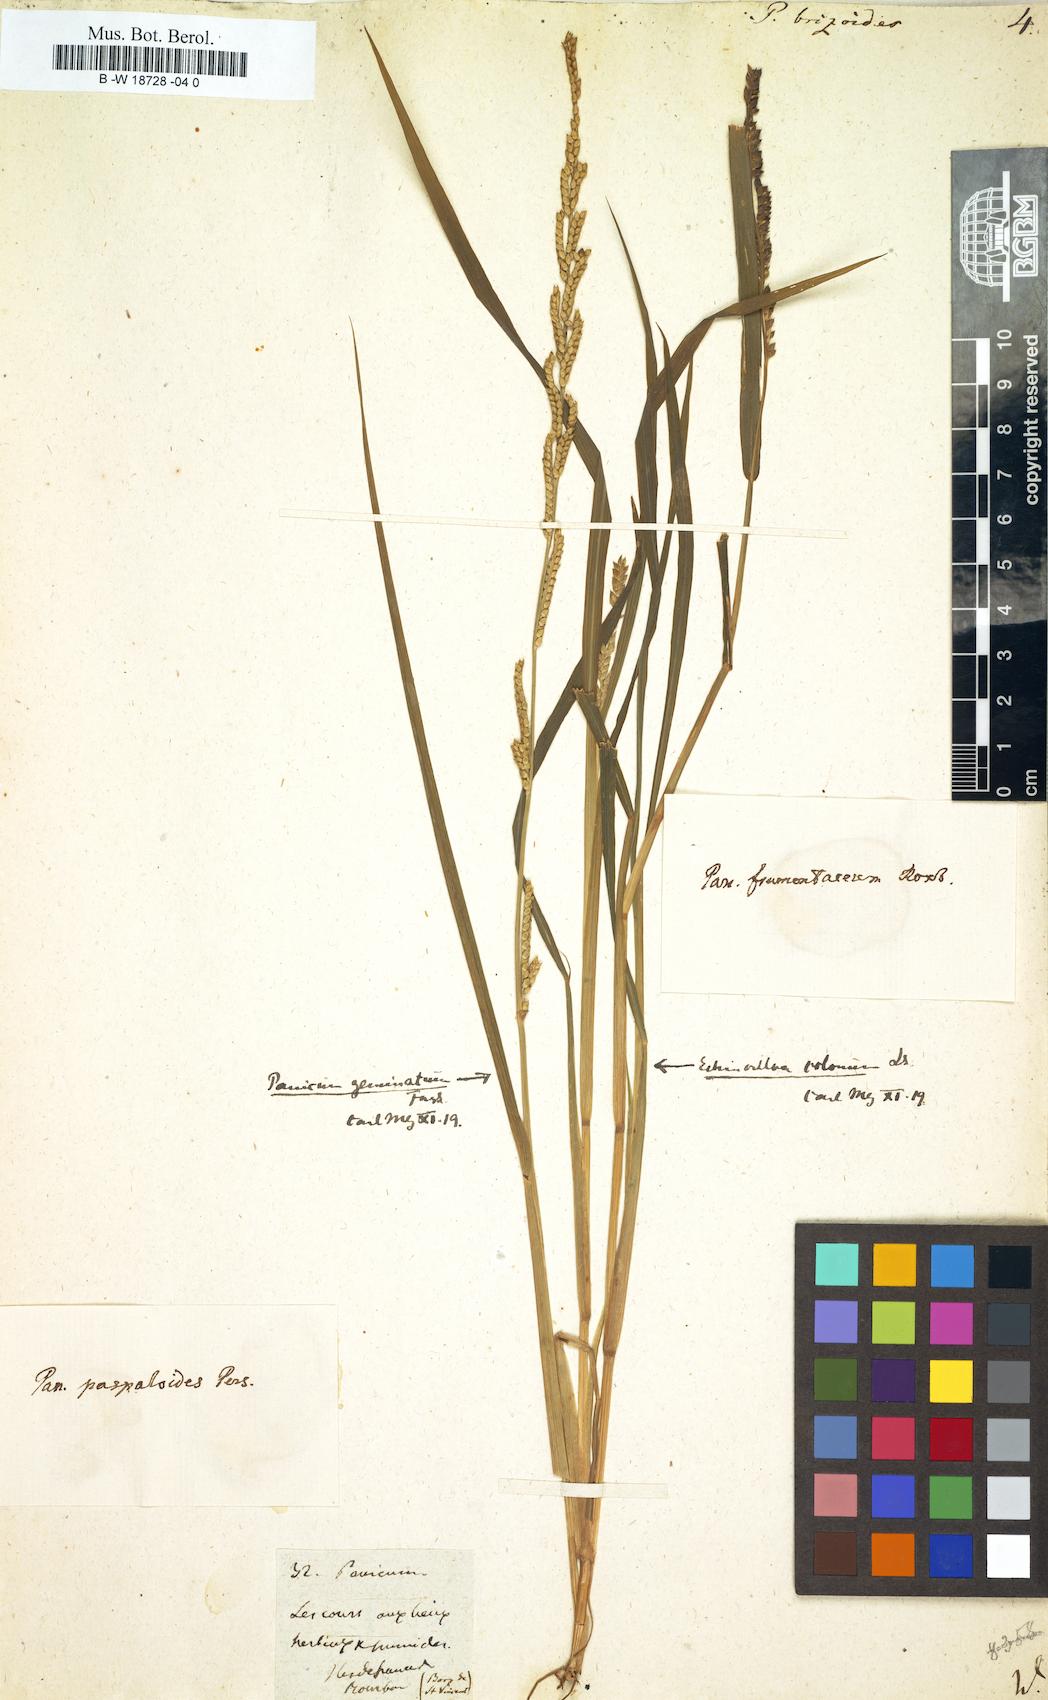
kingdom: Plantae
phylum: Tracheophyta
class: Liliopsida
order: Poales
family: Poaceae
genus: Setaria
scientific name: Setaria flavida
